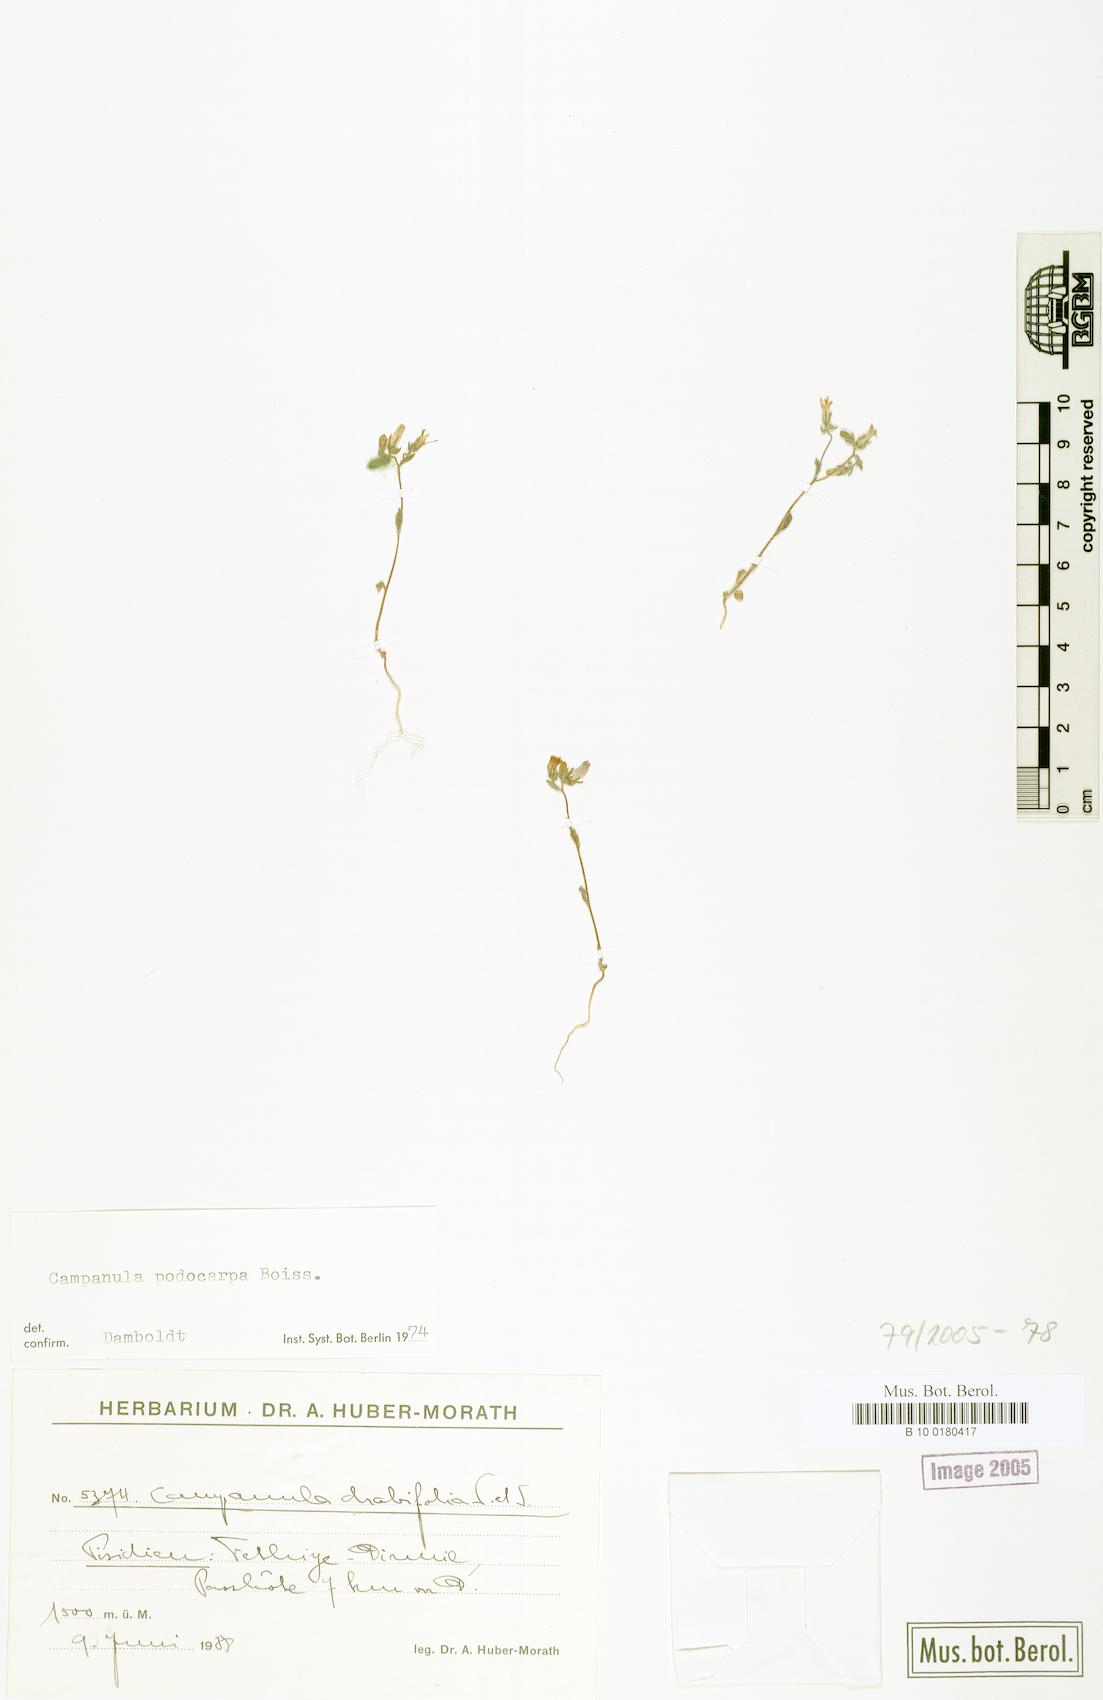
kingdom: Plantae
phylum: Tracheophyta
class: Magnoliopsida
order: Asterales
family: Campanulaceae
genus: Campanula
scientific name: Campanula drabifolia
